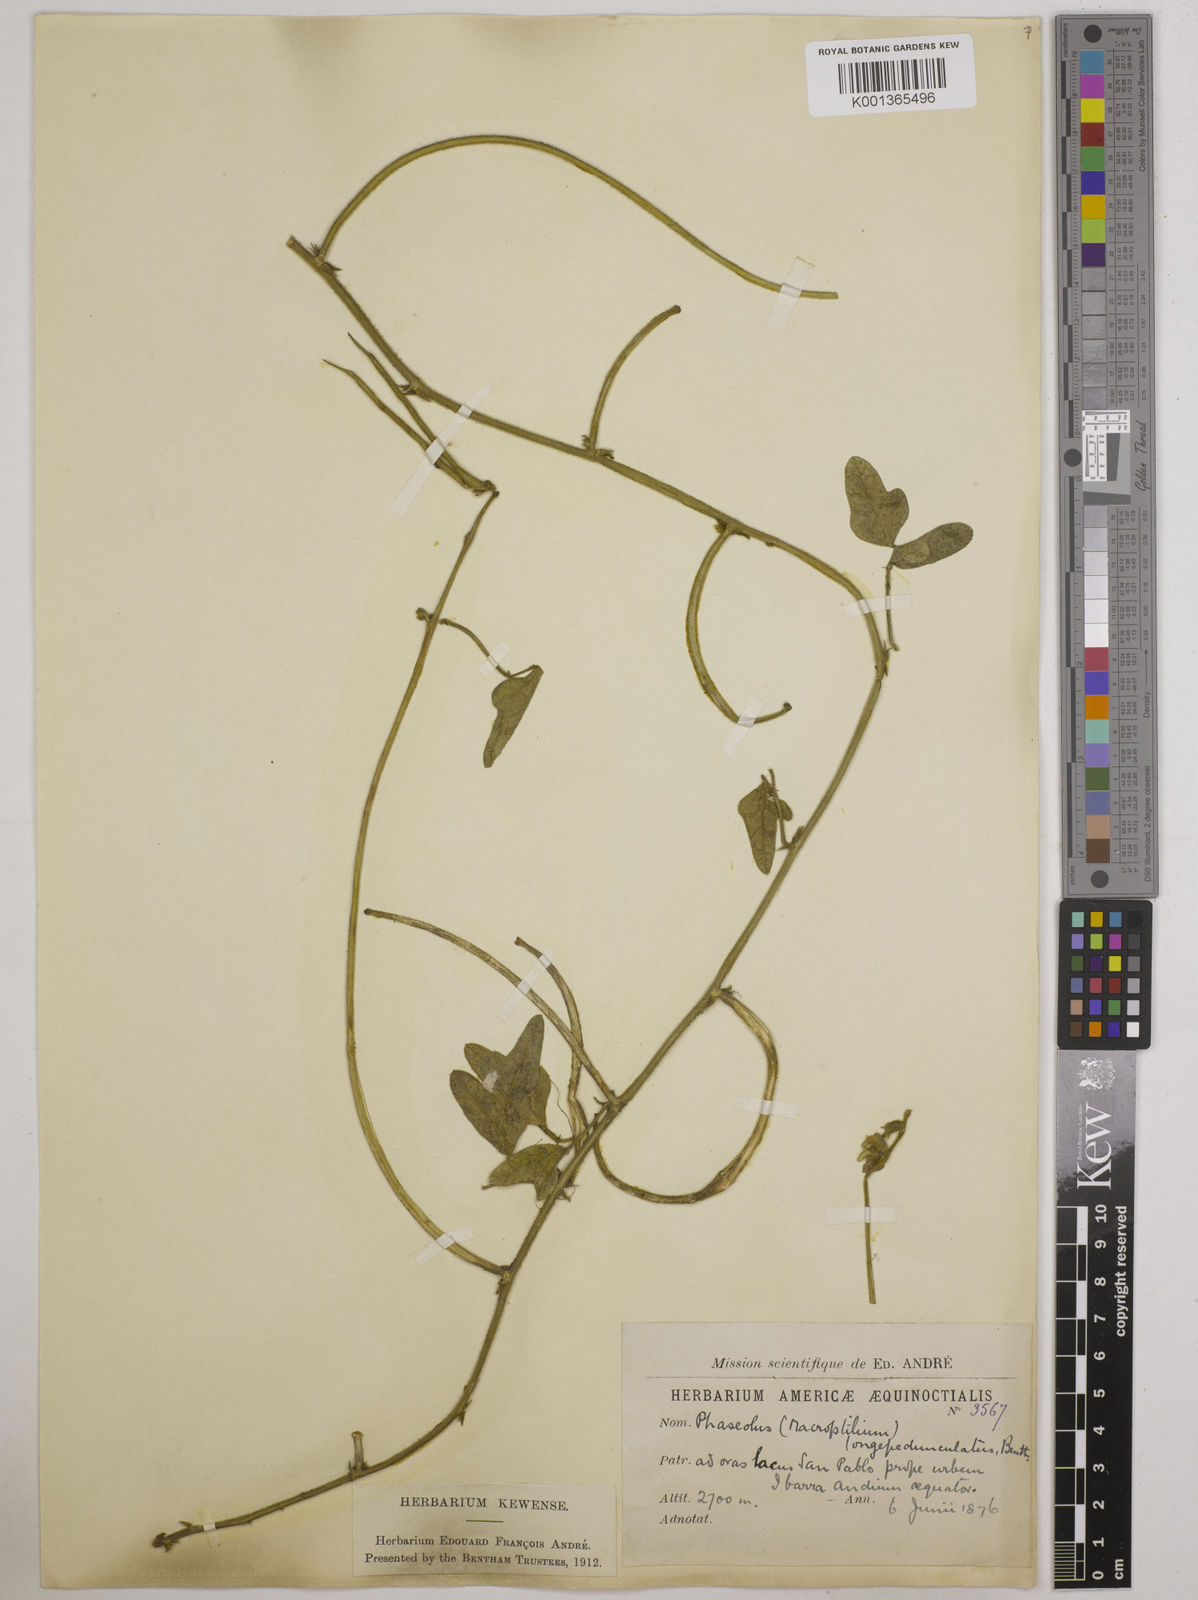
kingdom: Plantae
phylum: Tracheophyta
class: Magnoliopsida
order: Fabales
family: Fabaceae
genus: Macroptilium
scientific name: Macroptilium atropurpureum
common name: Purple bushbean
